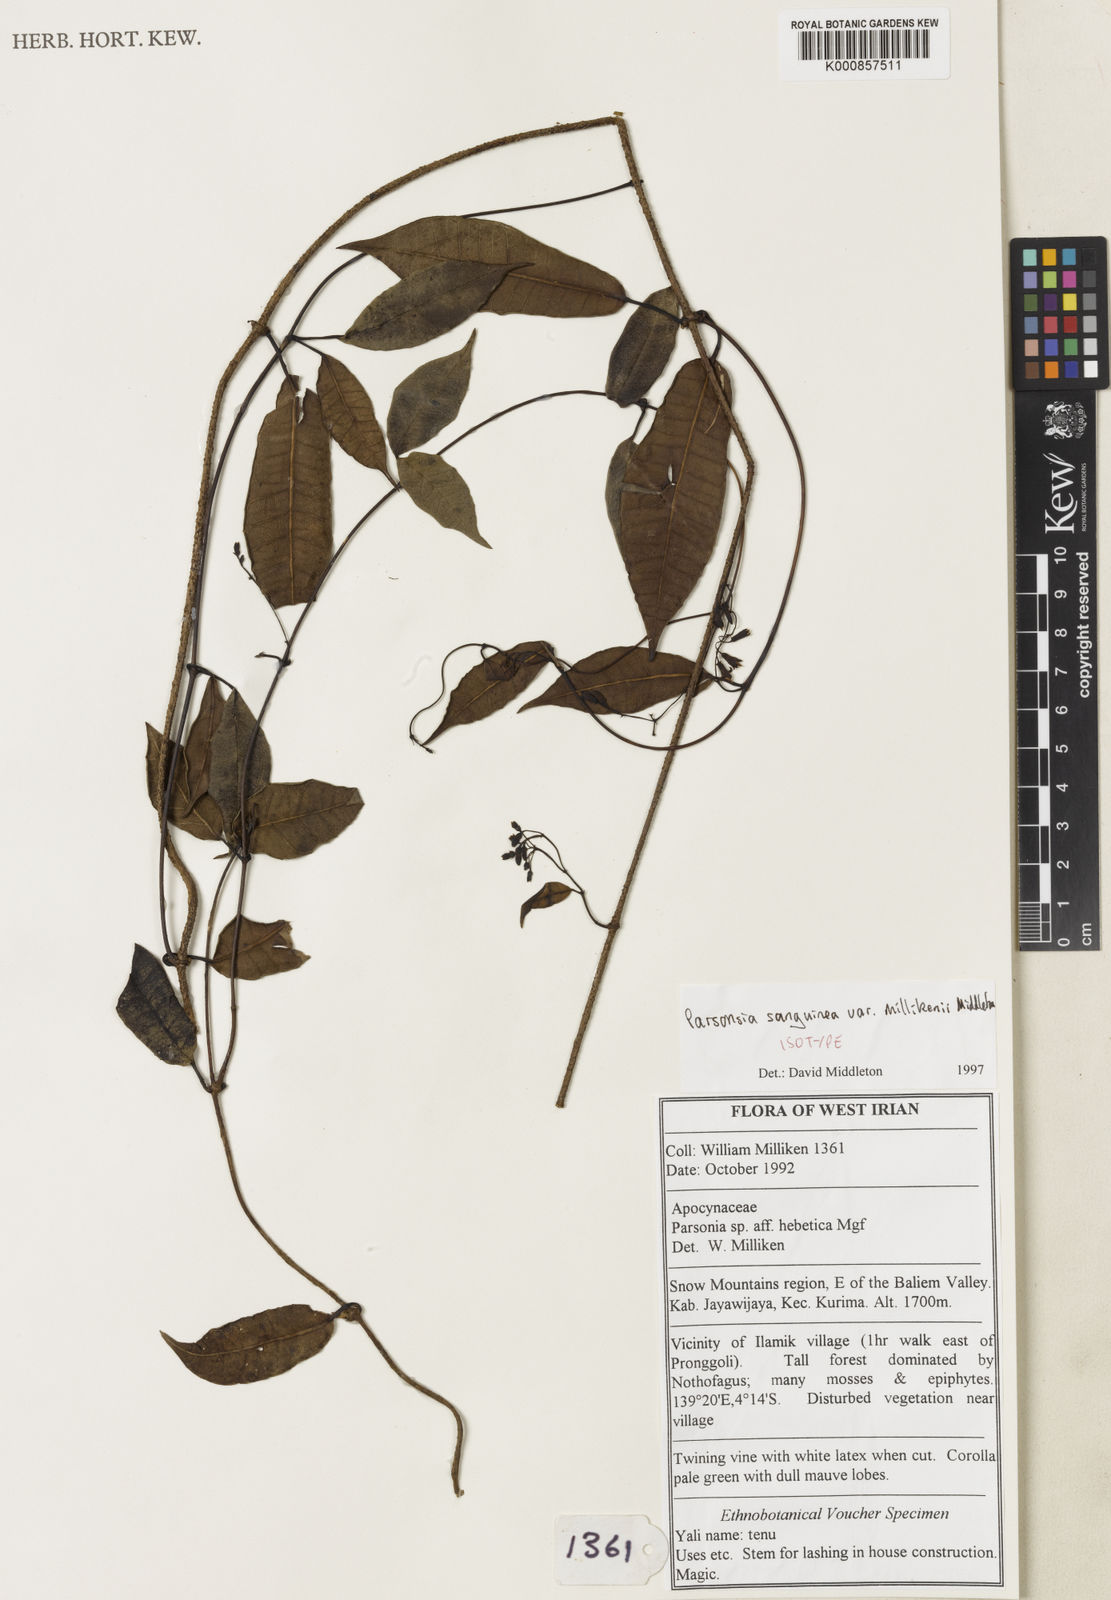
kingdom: Plantae
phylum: Tracheophyta
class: Magnoliopsida
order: Gentianales
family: Apocynaceae
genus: Parsonsia
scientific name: Parsonsia sanguinea
